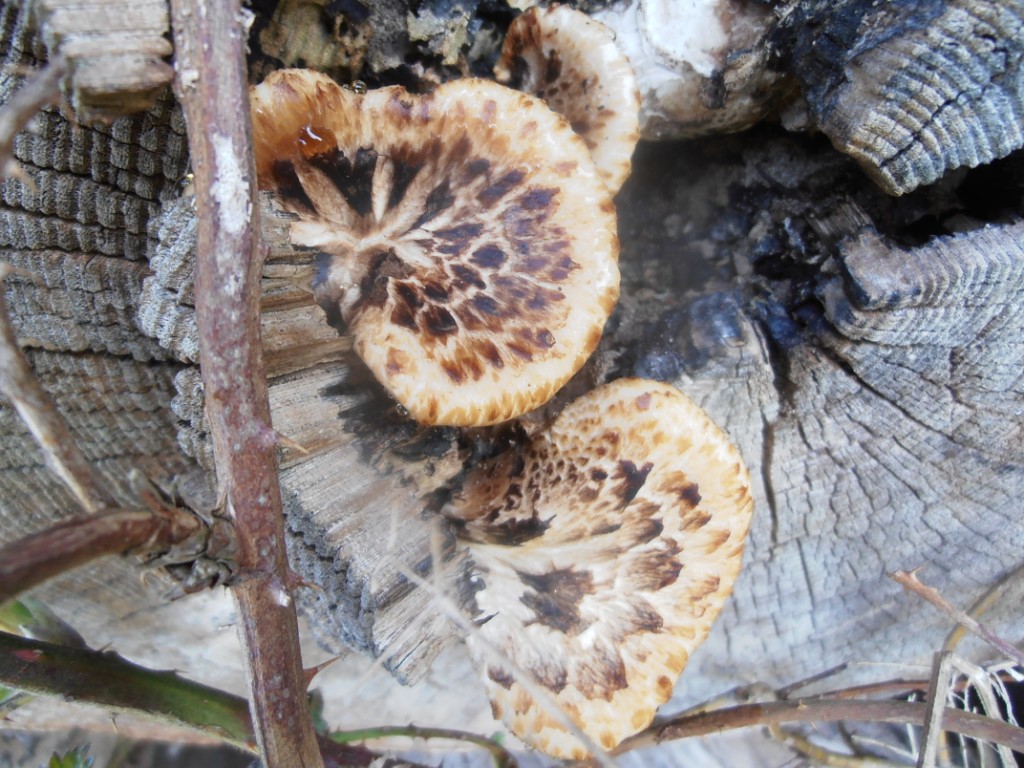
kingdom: Fungi
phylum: Basidiomycota
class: Agaricomycetes
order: Polyporales
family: Polyporaceae
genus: Cerioporus
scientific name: Cerioporus squamosus
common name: skællet stilkporesvamp
